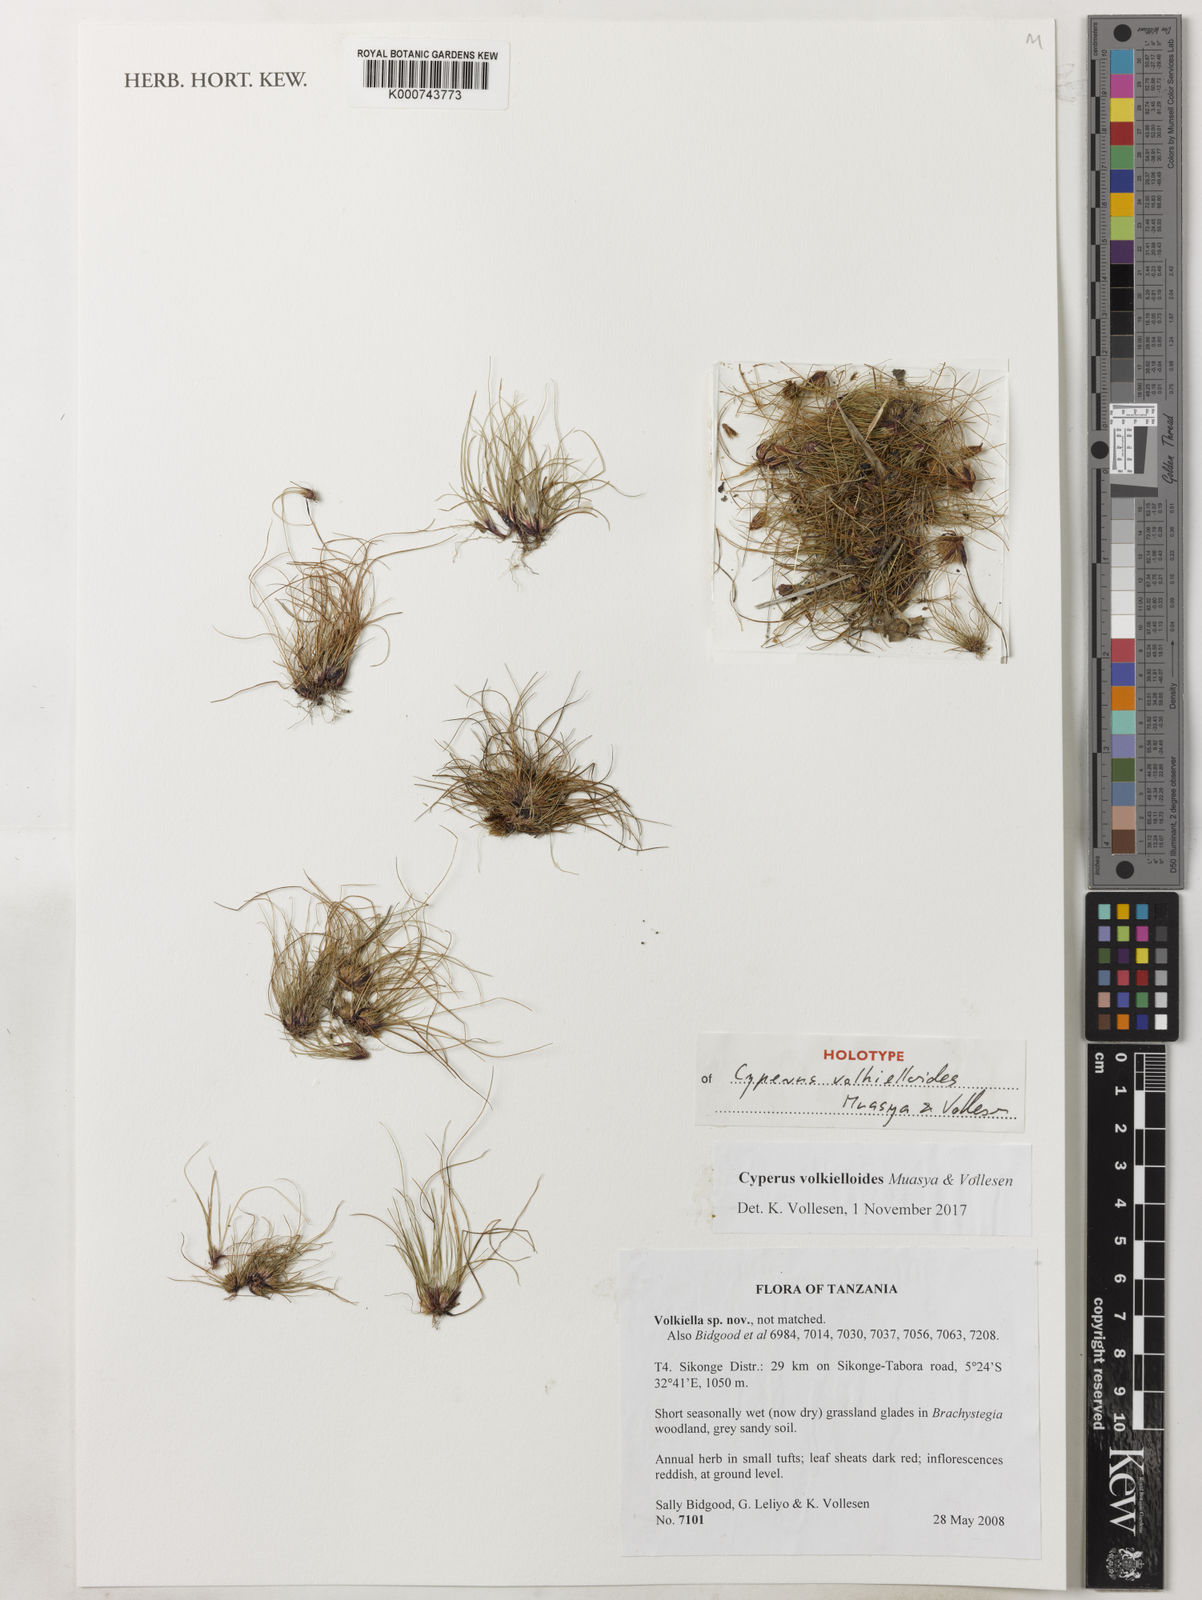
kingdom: Plantae
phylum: Tracheophyta
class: Liliopsida
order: Poales
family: Cyperaceae
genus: Cyperus
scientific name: Cyperus volkielloides
